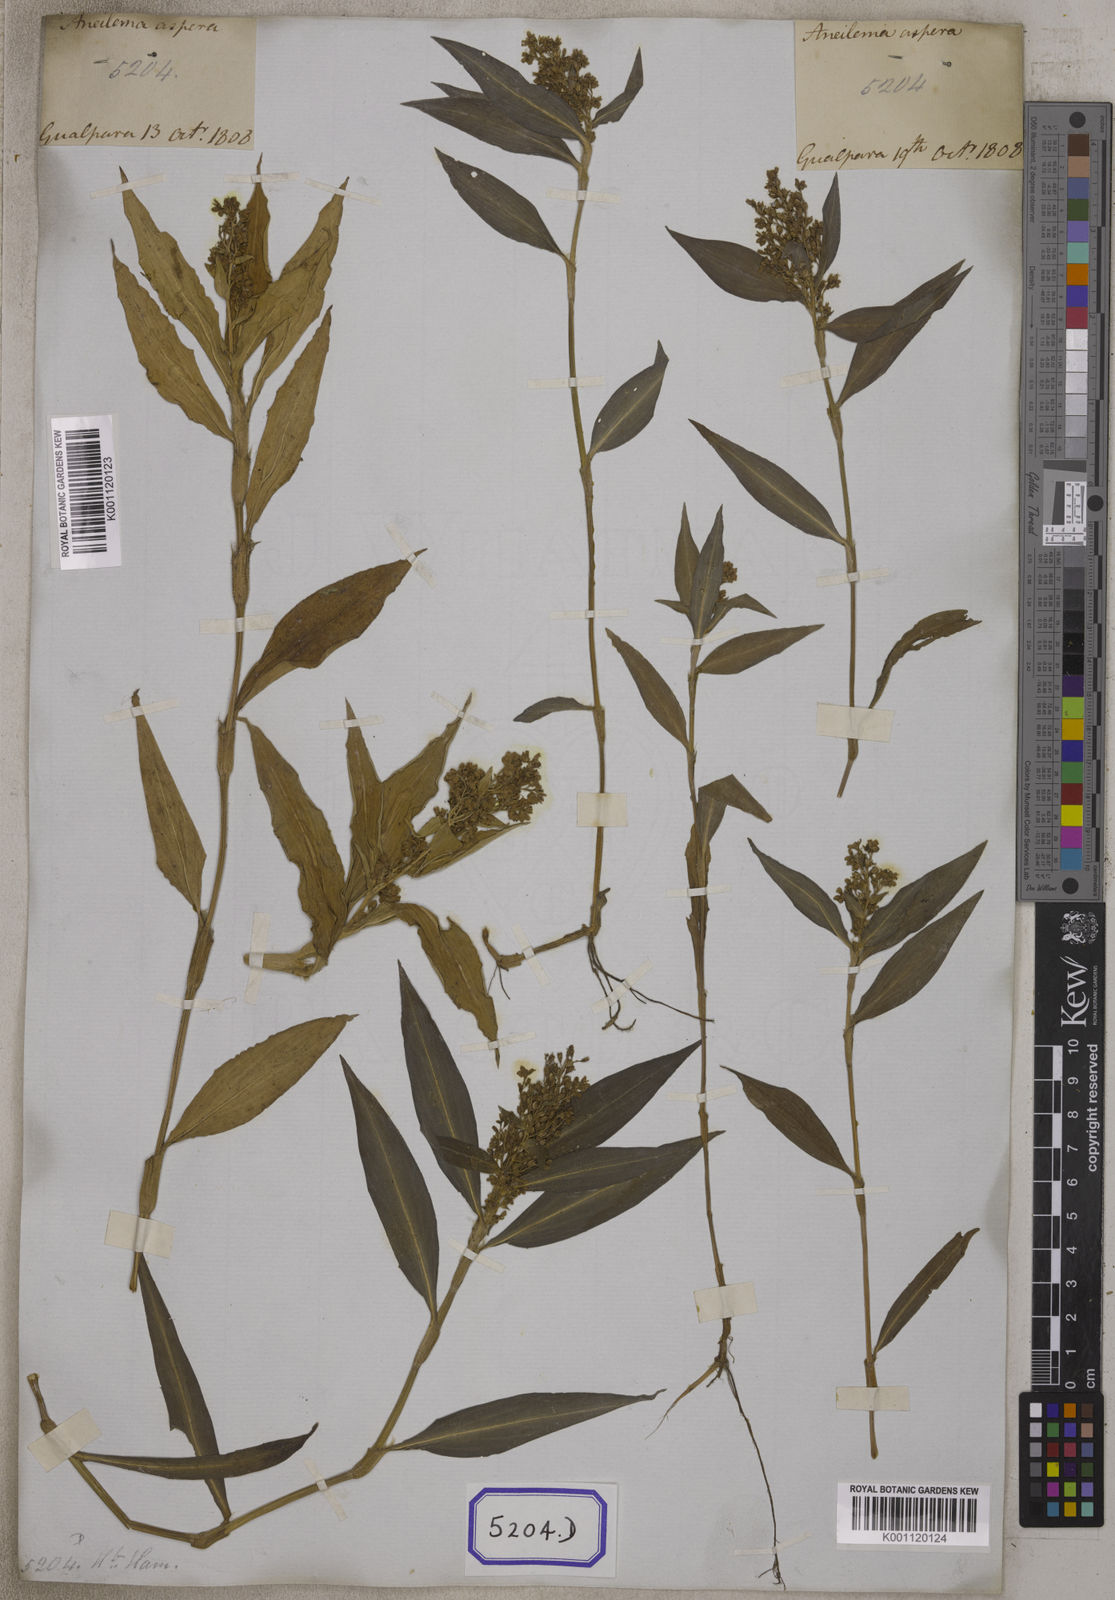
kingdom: Plantae
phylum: Tracheophyta
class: Liliopsida
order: Commelinales
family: Commelinaceae
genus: Floscopa
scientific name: Floscopa scandens
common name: Climbing flower cup
